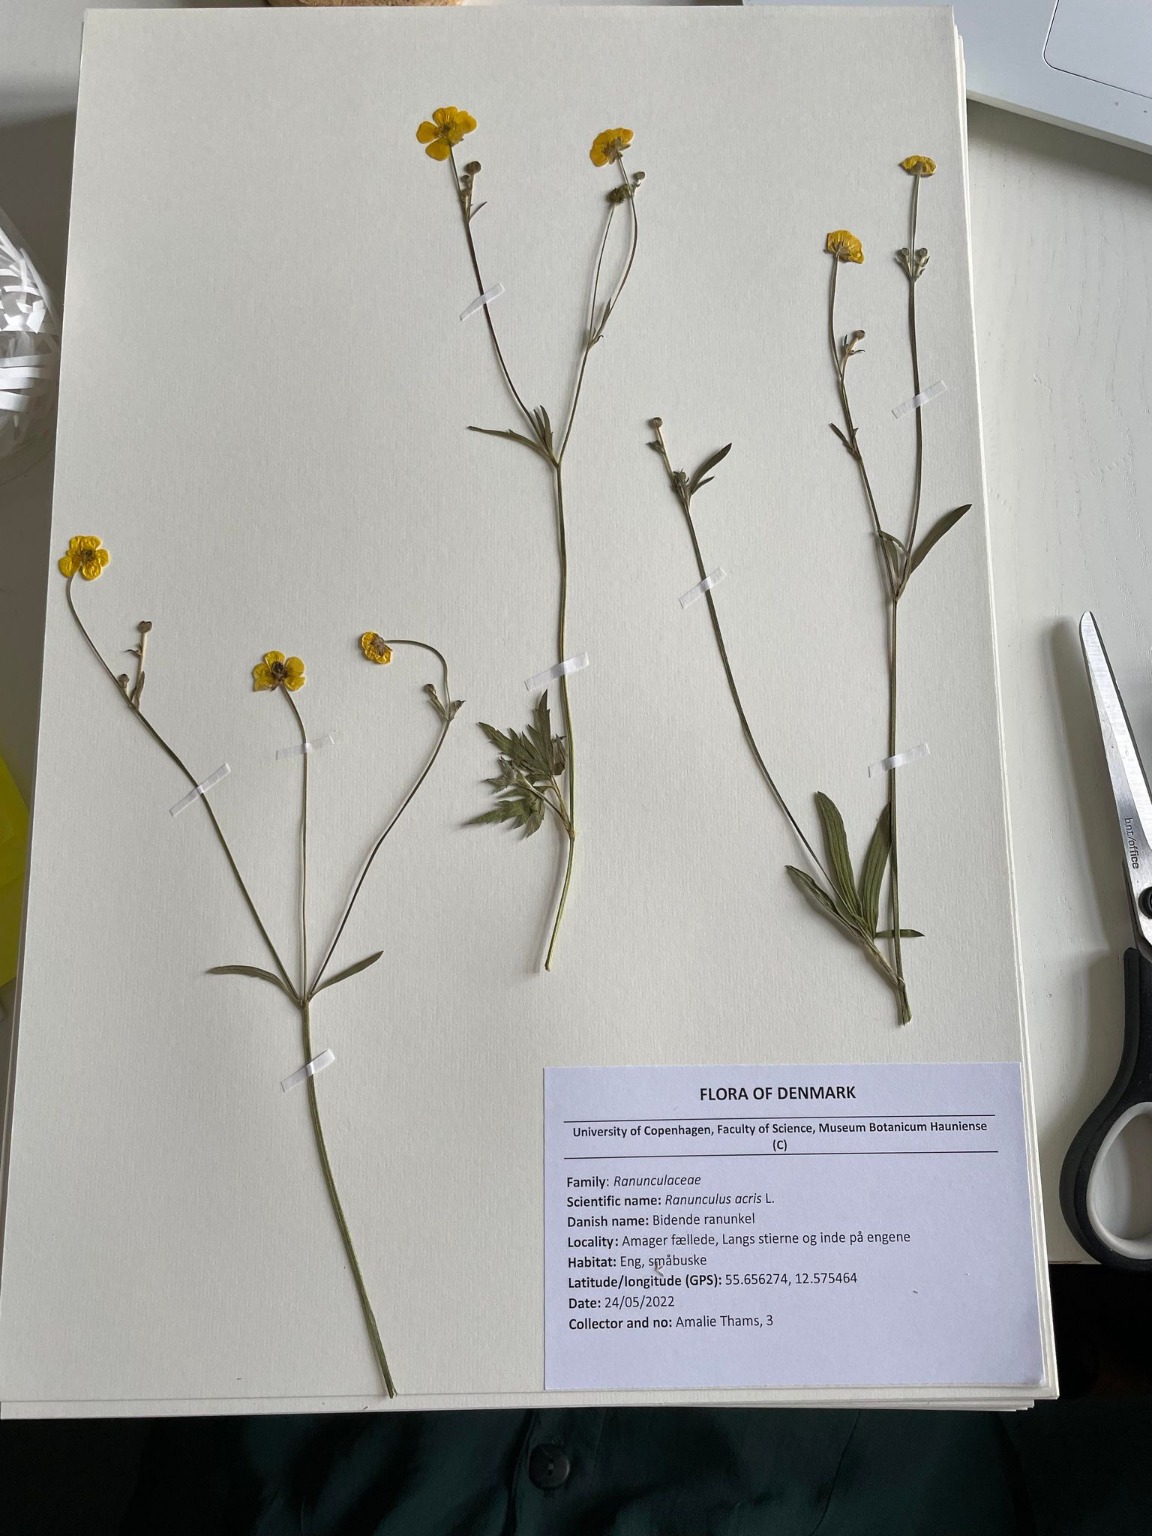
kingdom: Plantae
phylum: Tracheophyta
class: Magnoliopsida
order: Ranunculales
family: Ranunculaceae
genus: Ranunculus
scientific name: Ranunculus acris
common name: Bidende ranunkel
